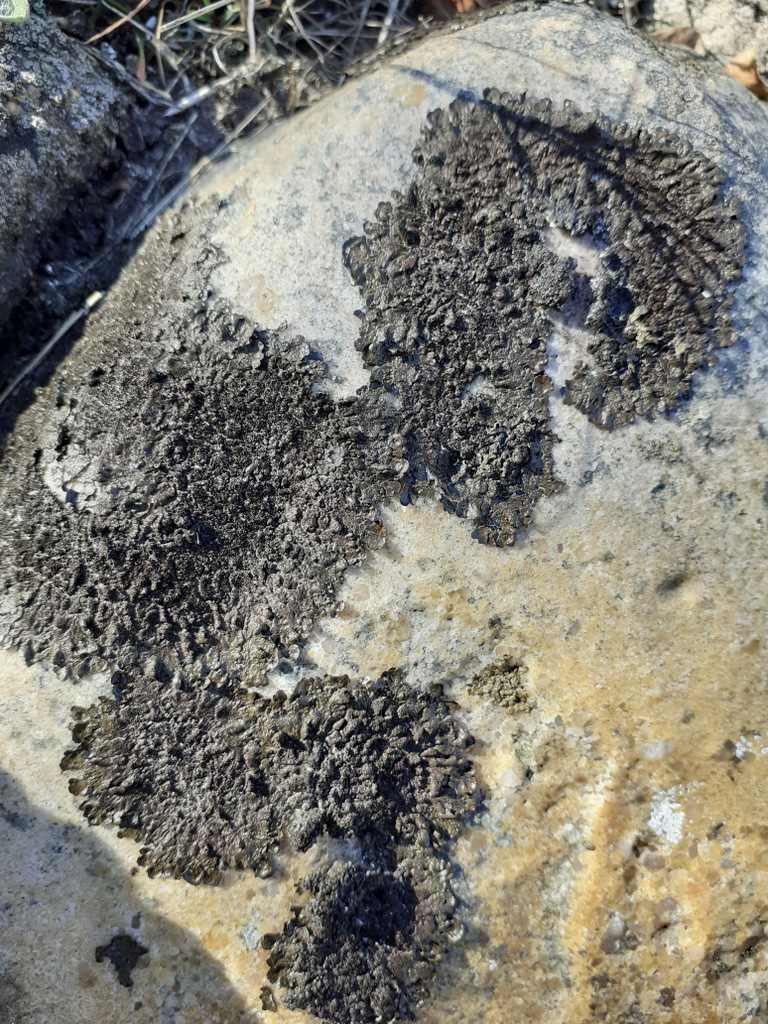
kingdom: Fungi
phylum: Ascomycota
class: Lecanoromycetes
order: Lecanorales
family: Parmeliaceae
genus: Melanelixia
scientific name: Melanelixia fuliginosa
